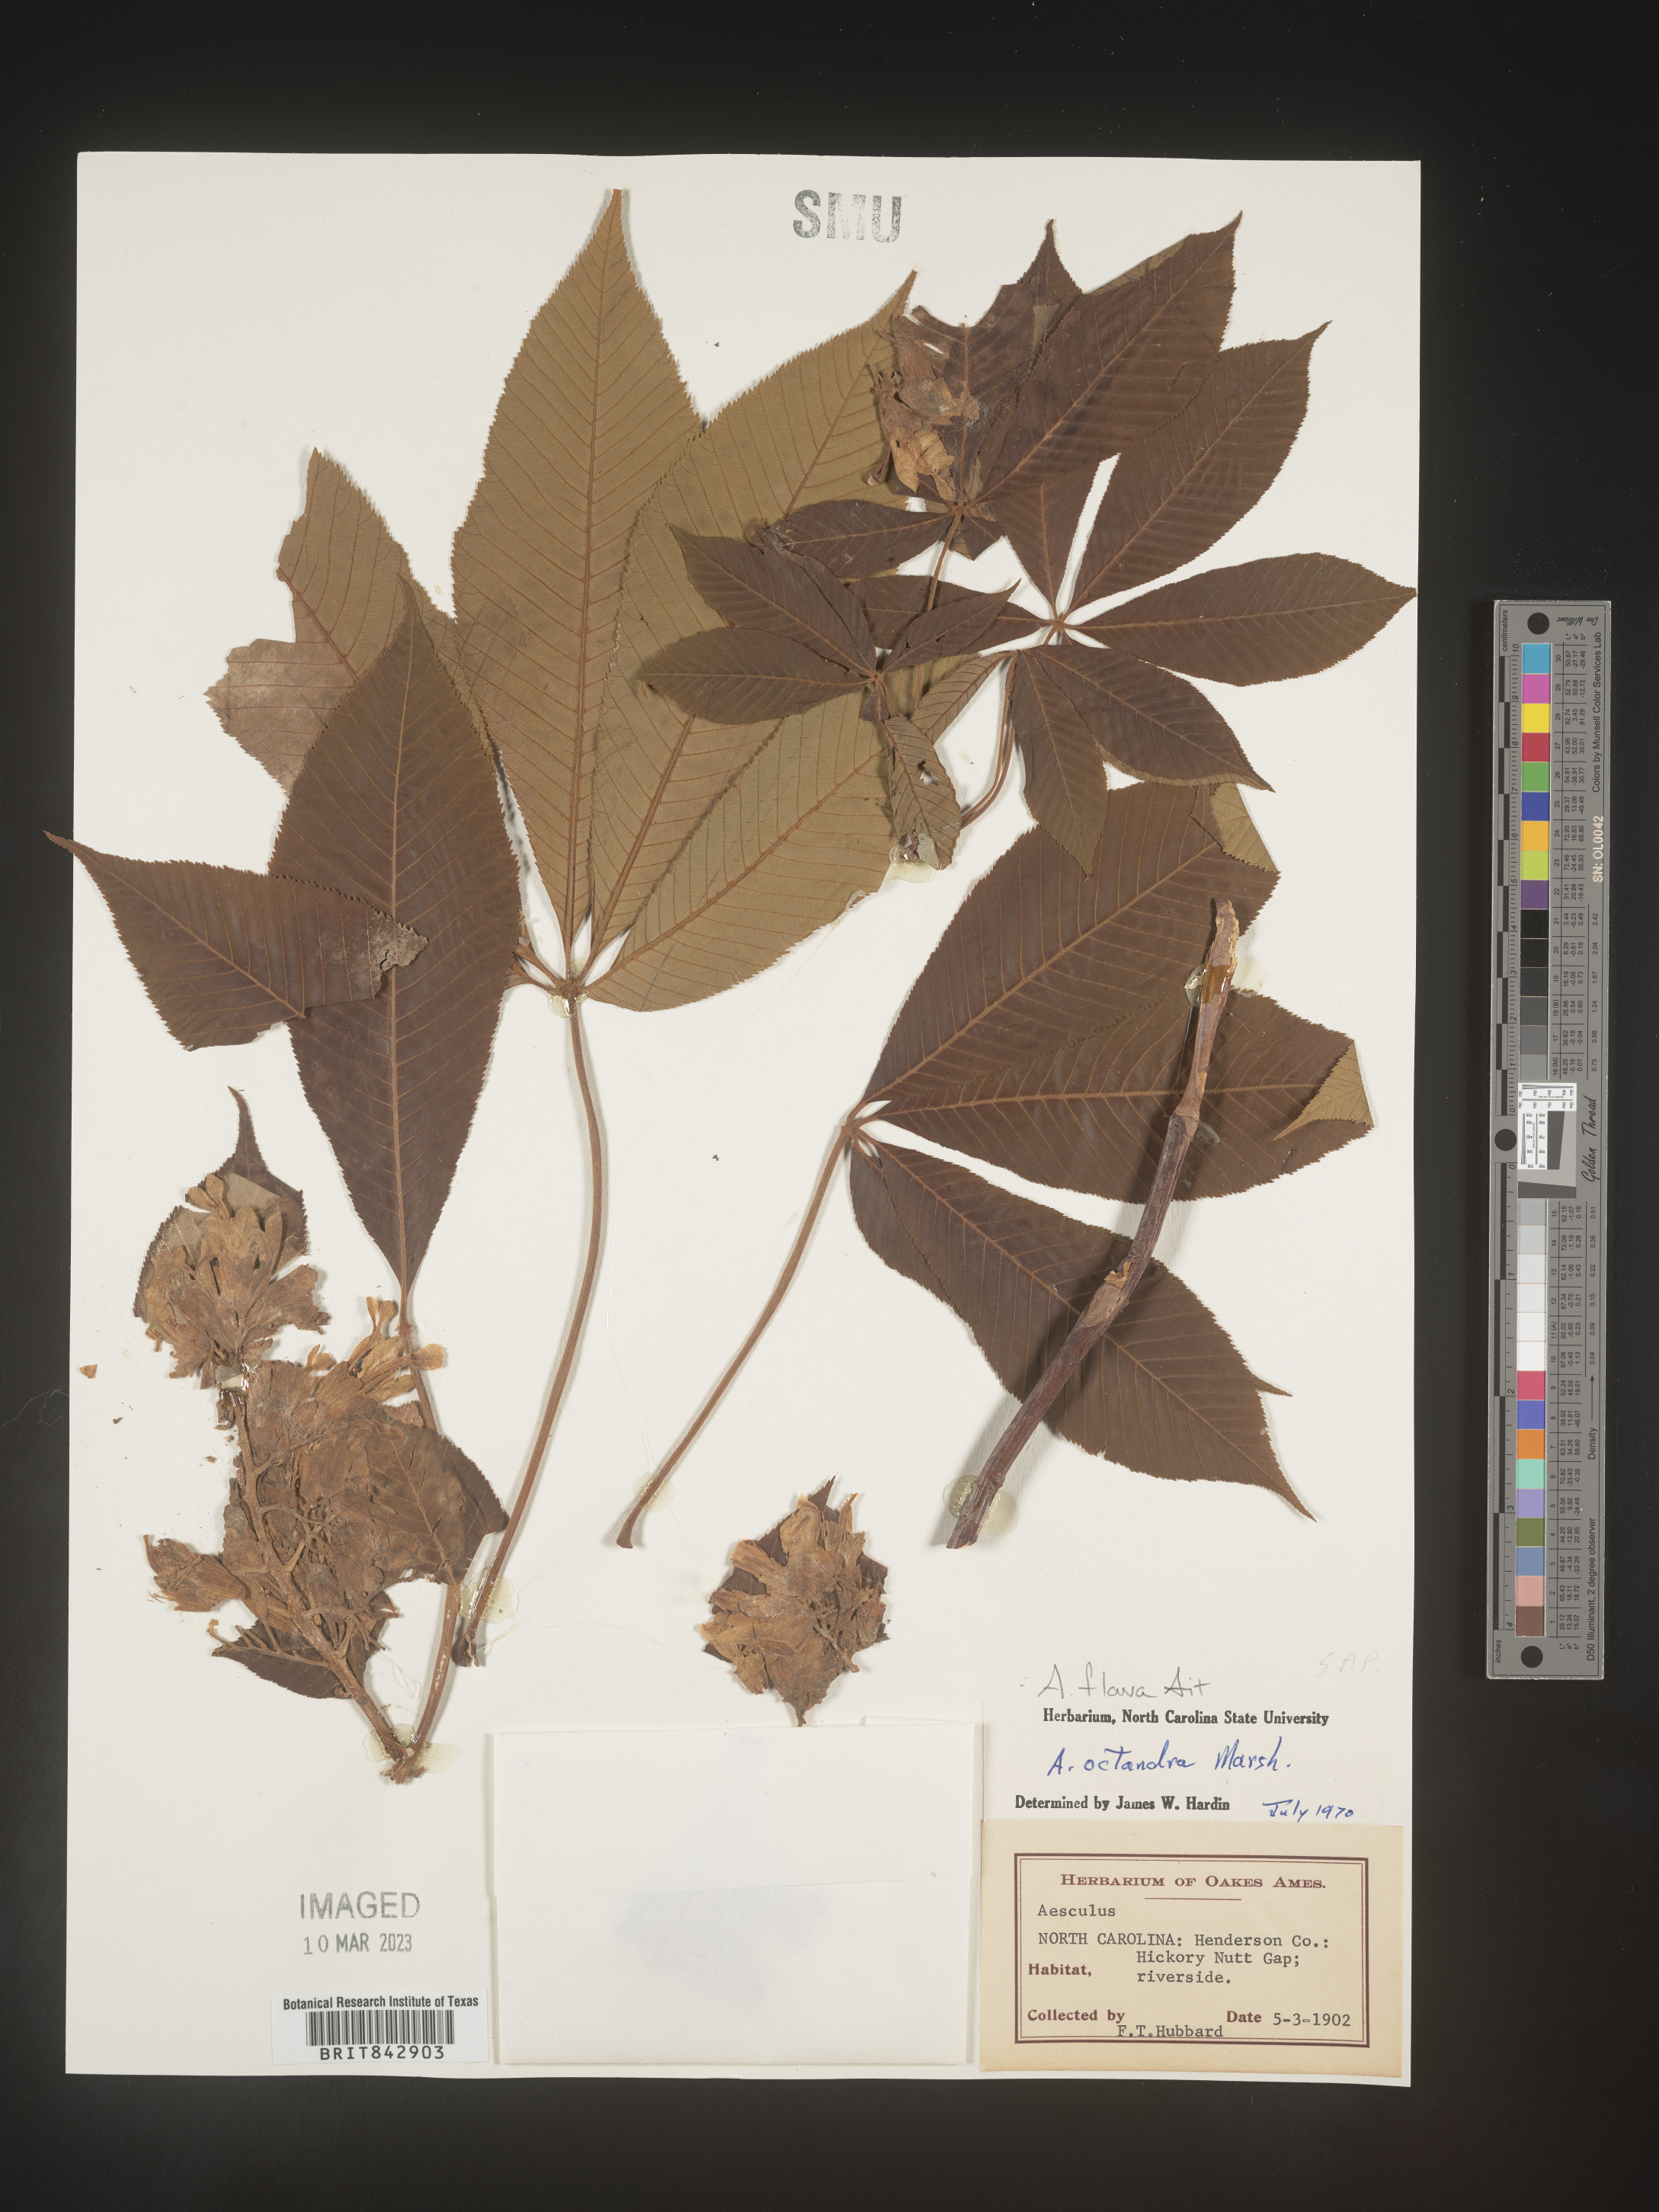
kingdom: Plantae
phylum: Tracheophyta
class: Magnoliopsida
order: Sapindales
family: Sapindaceae
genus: Aesculus
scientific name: Aesculus flava
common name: Yellow buckeye
